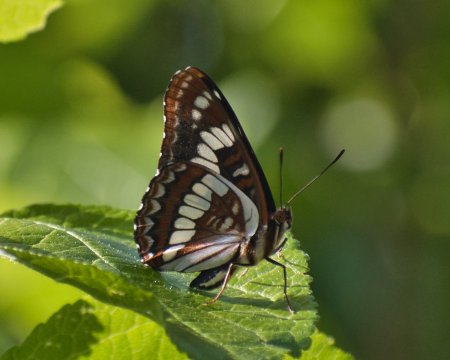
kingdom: Animalia
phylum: Arthropoda
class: Insecta
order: Lepidoptera
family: Nymphalidae
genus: Limenitis
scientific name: Limenitis lorquini
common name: Lorquin's Admiral
